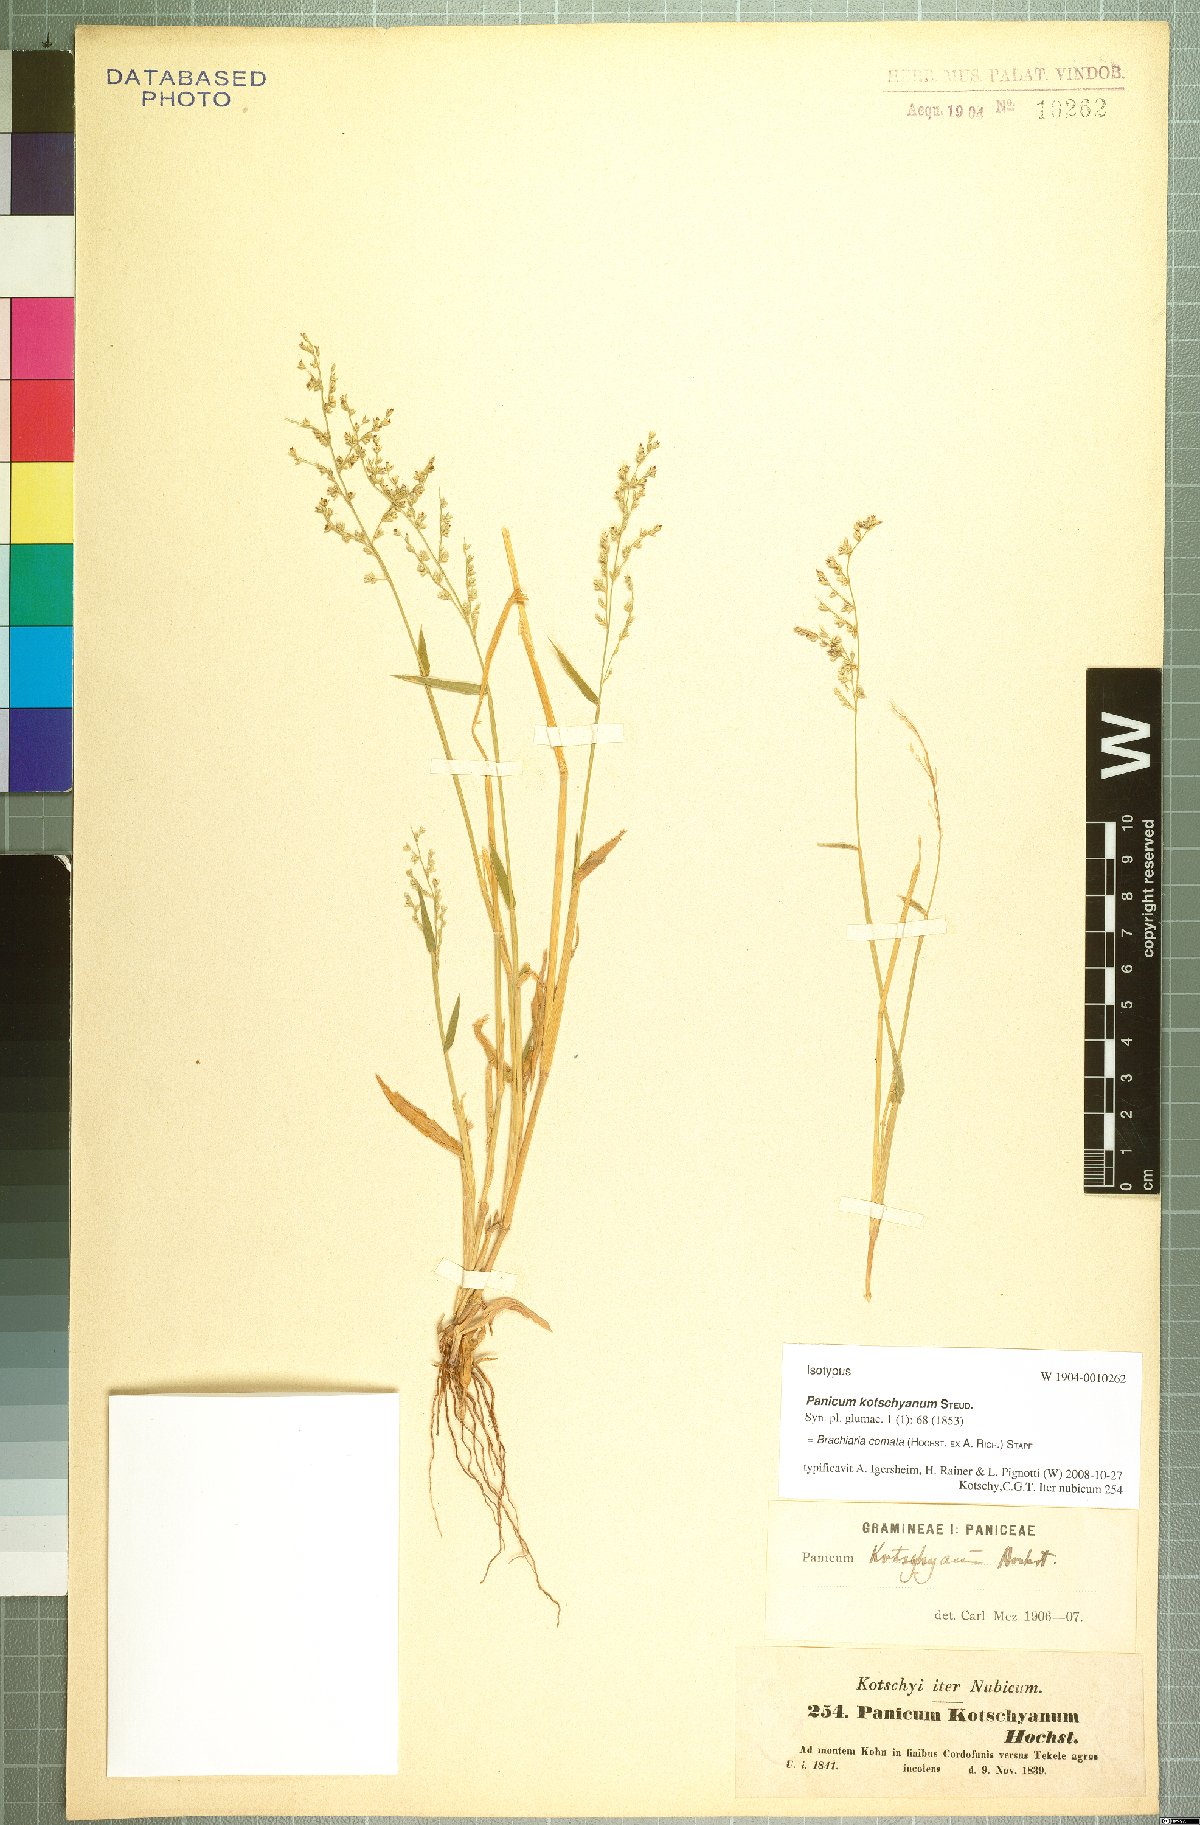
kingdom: Plantae
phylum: Tracheophyta
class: Liliopsida
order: Poales
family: Poaceae
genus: Urochloa
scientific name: Urochloa comata
